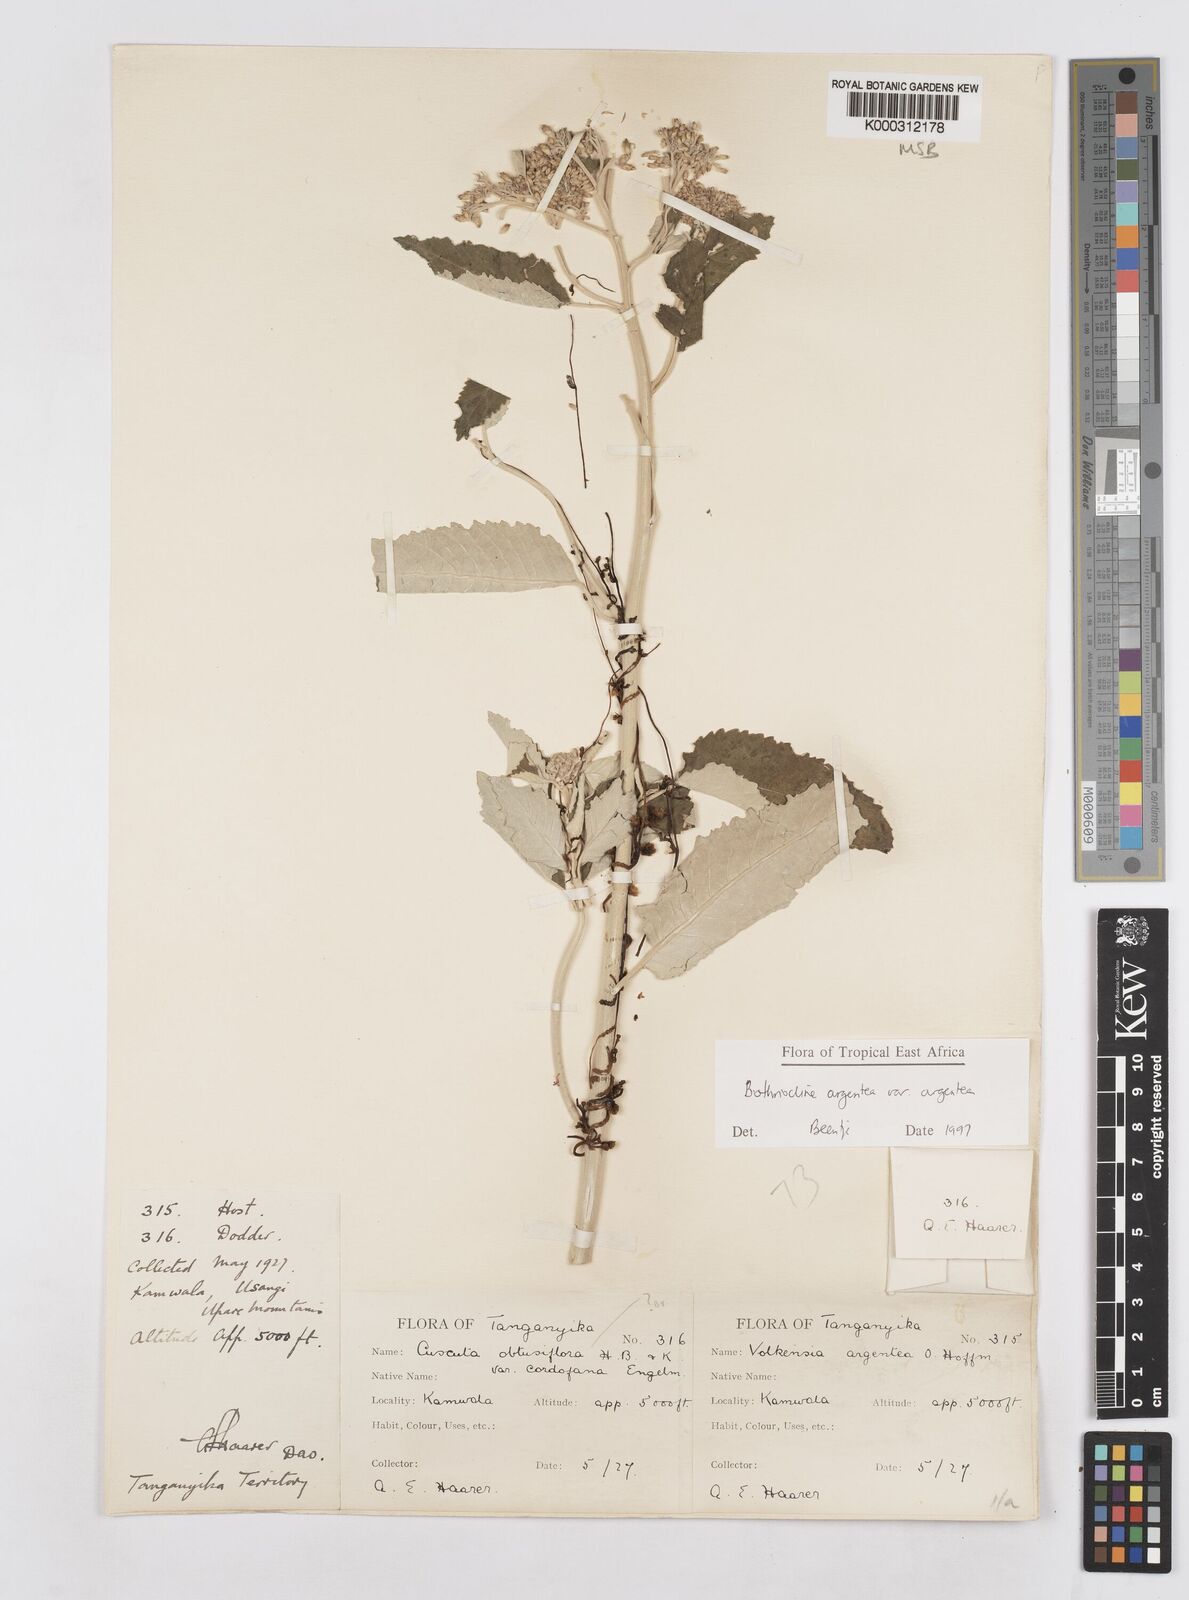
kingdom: Plantae
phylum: Tracheophyta
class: Magnoliopsida
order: Asterales
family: Asteraceae
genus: Bothriocline
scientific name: Bothriocline argentea
